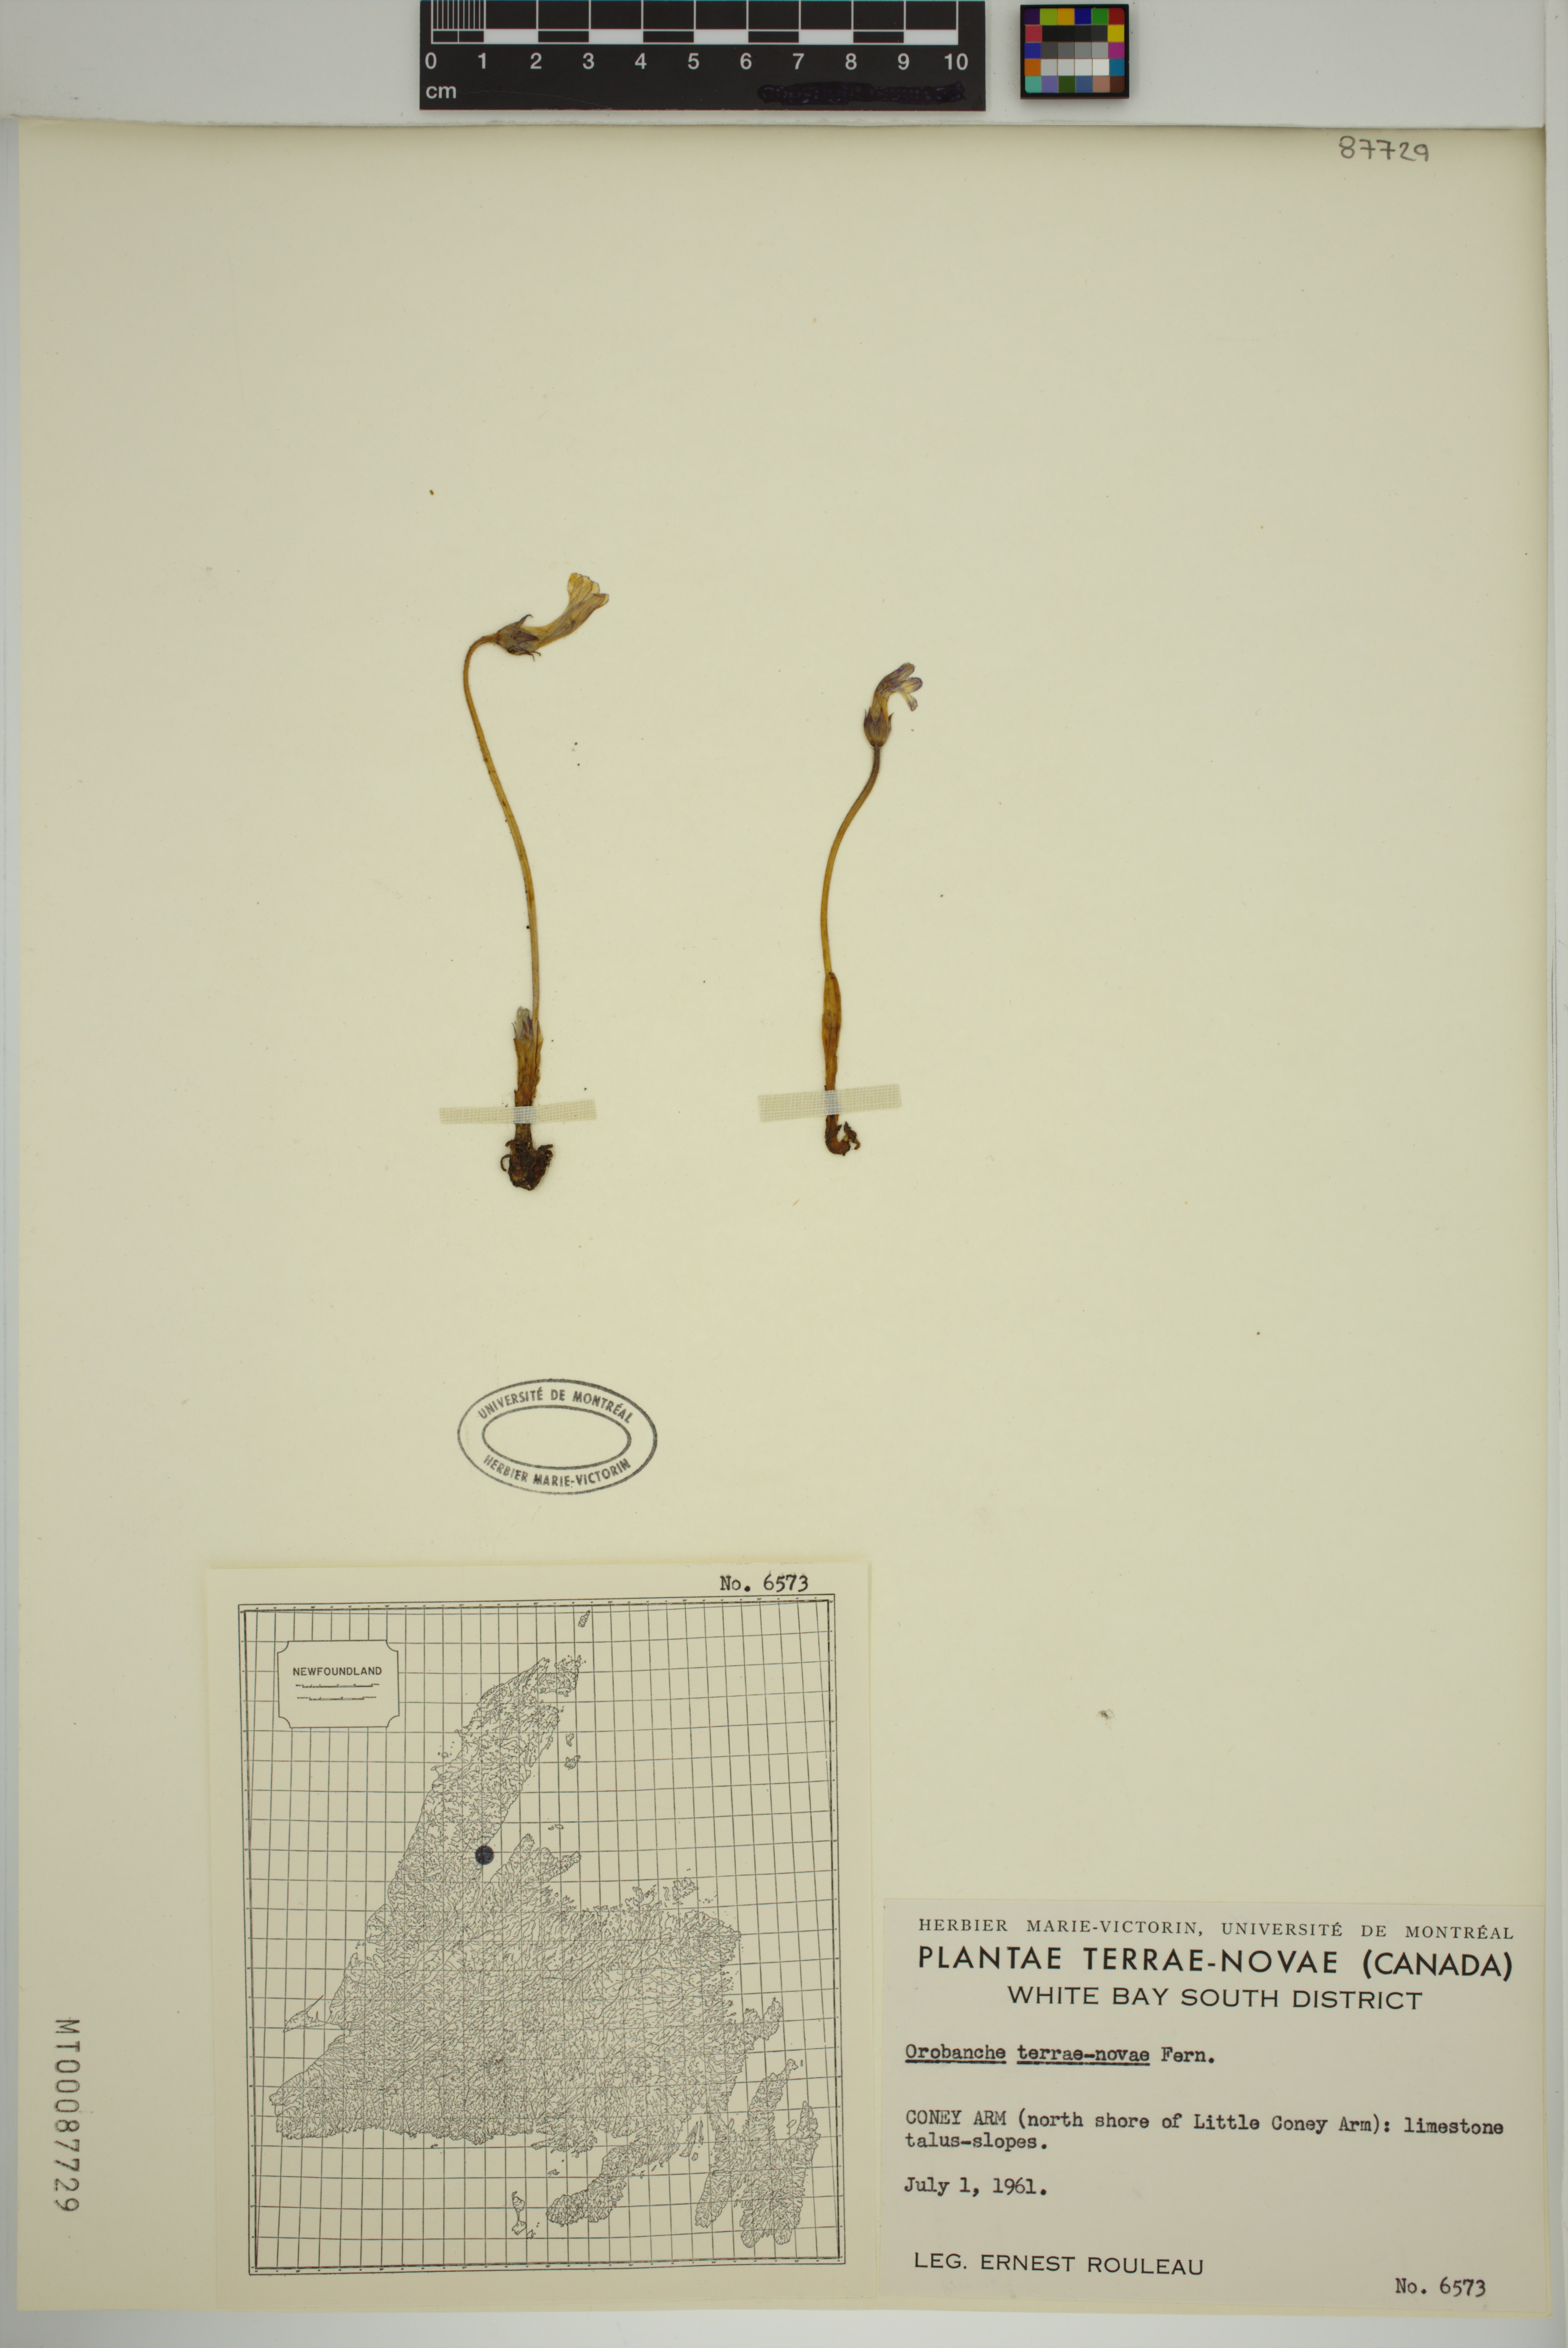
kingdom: Plantae
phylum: Tracheophyta
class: Magnoliopsida
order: Lamiales
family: Orobanchaceae
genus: Aphyllon
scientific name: Aphyllon uniflorum
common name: One-flowered broomrape
